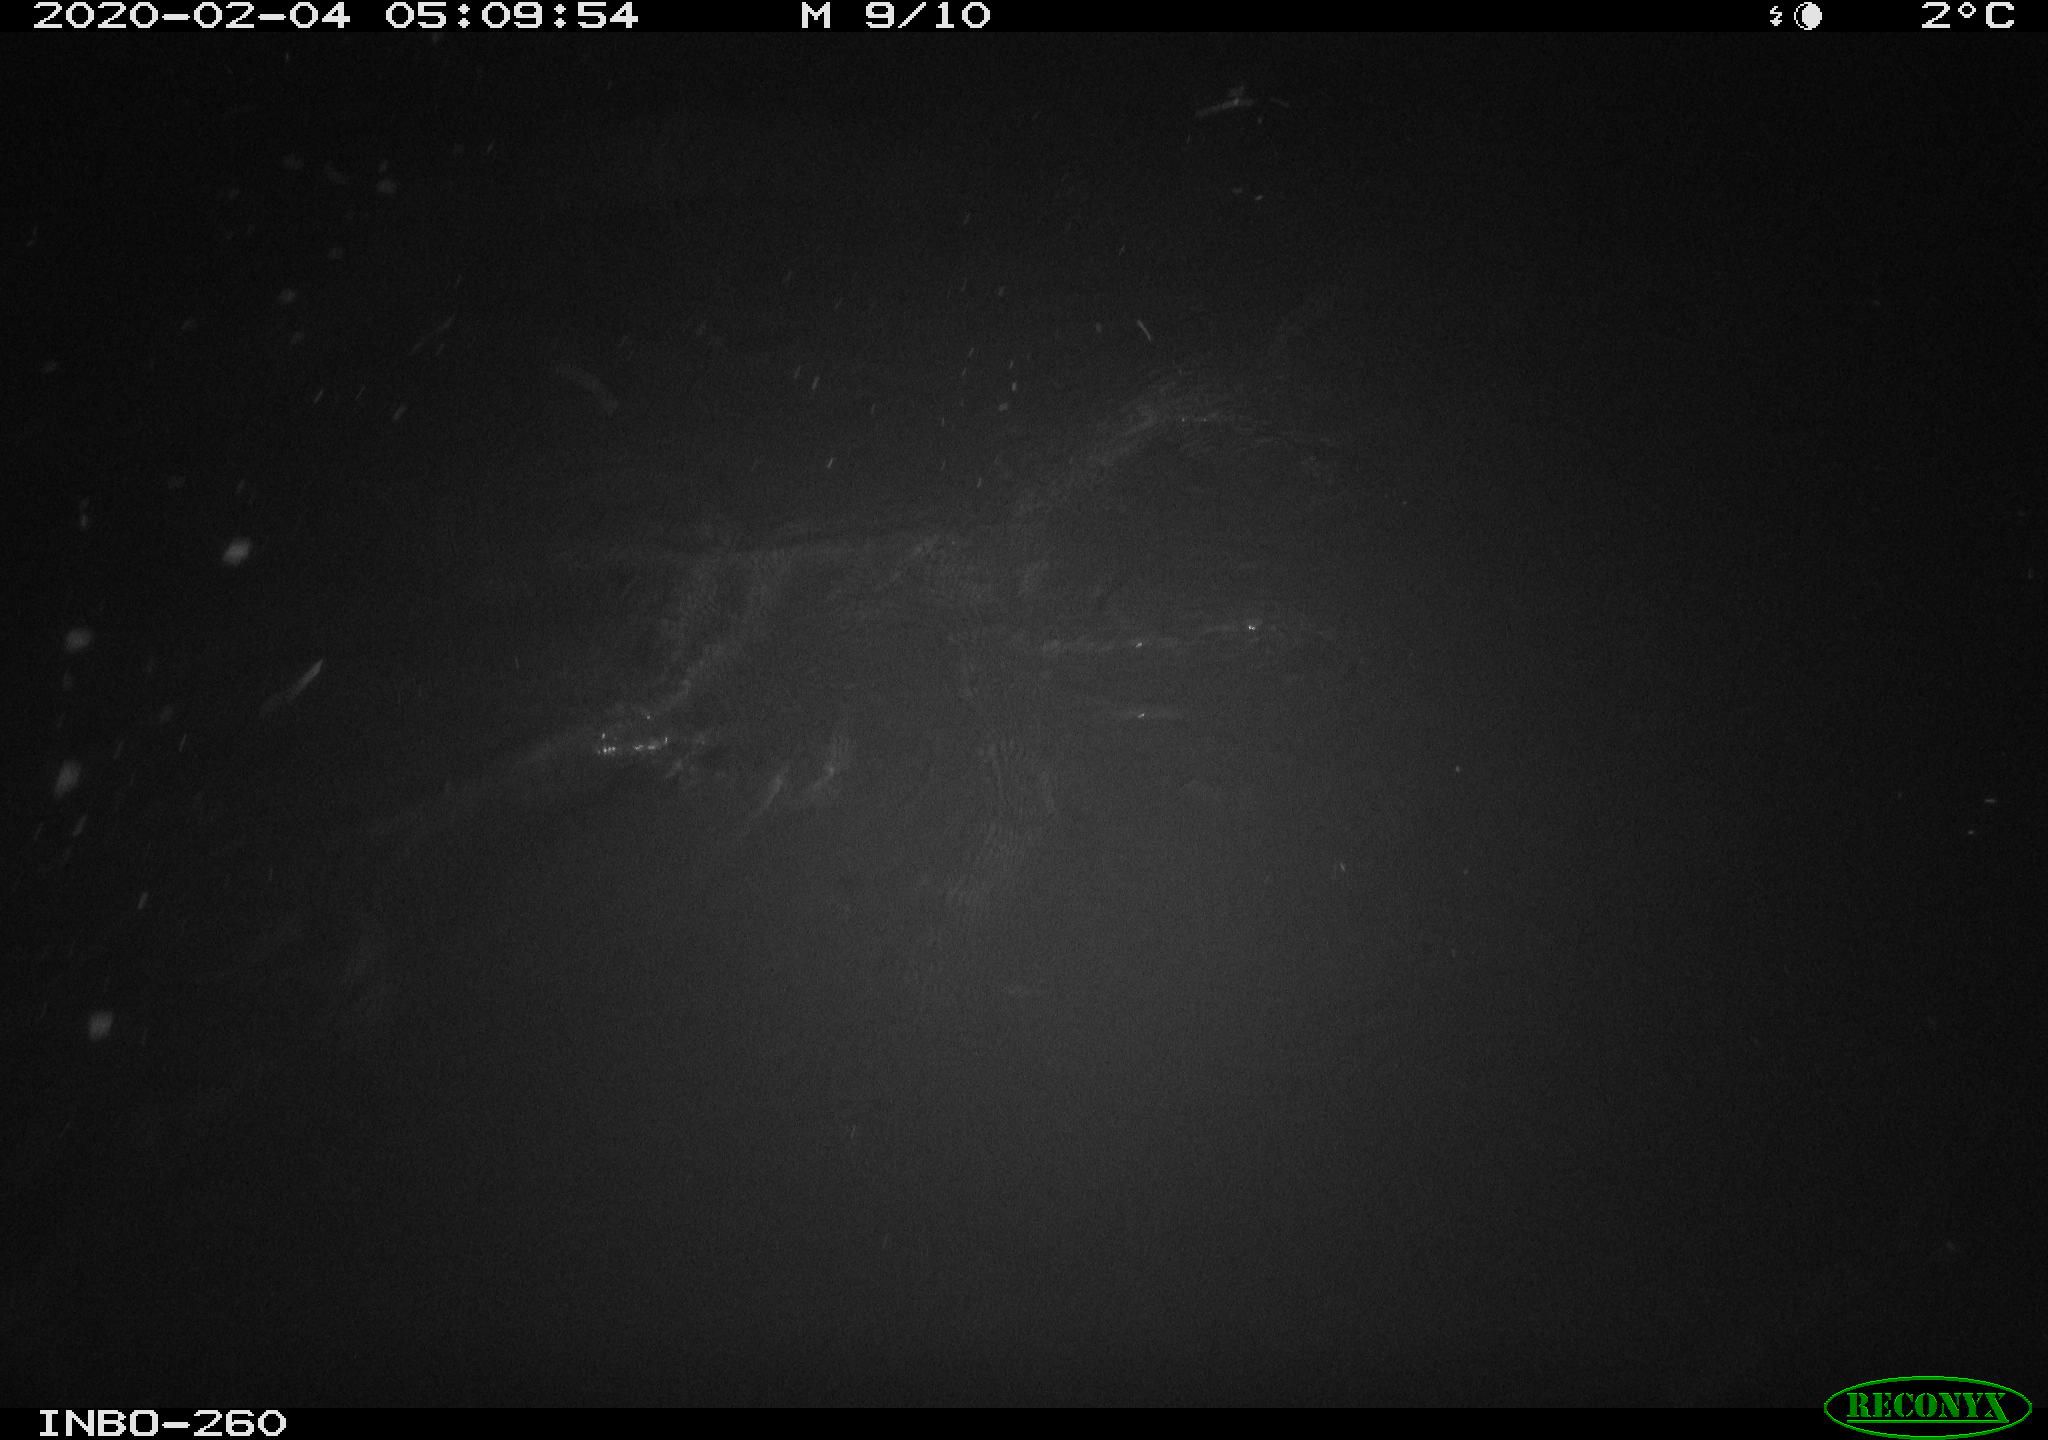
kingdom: Animalia
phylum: Chordata
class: Aves
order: Anseriformes
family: Anatidae
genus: Anas
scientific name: Anas platyrhynchos
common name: Mallard
